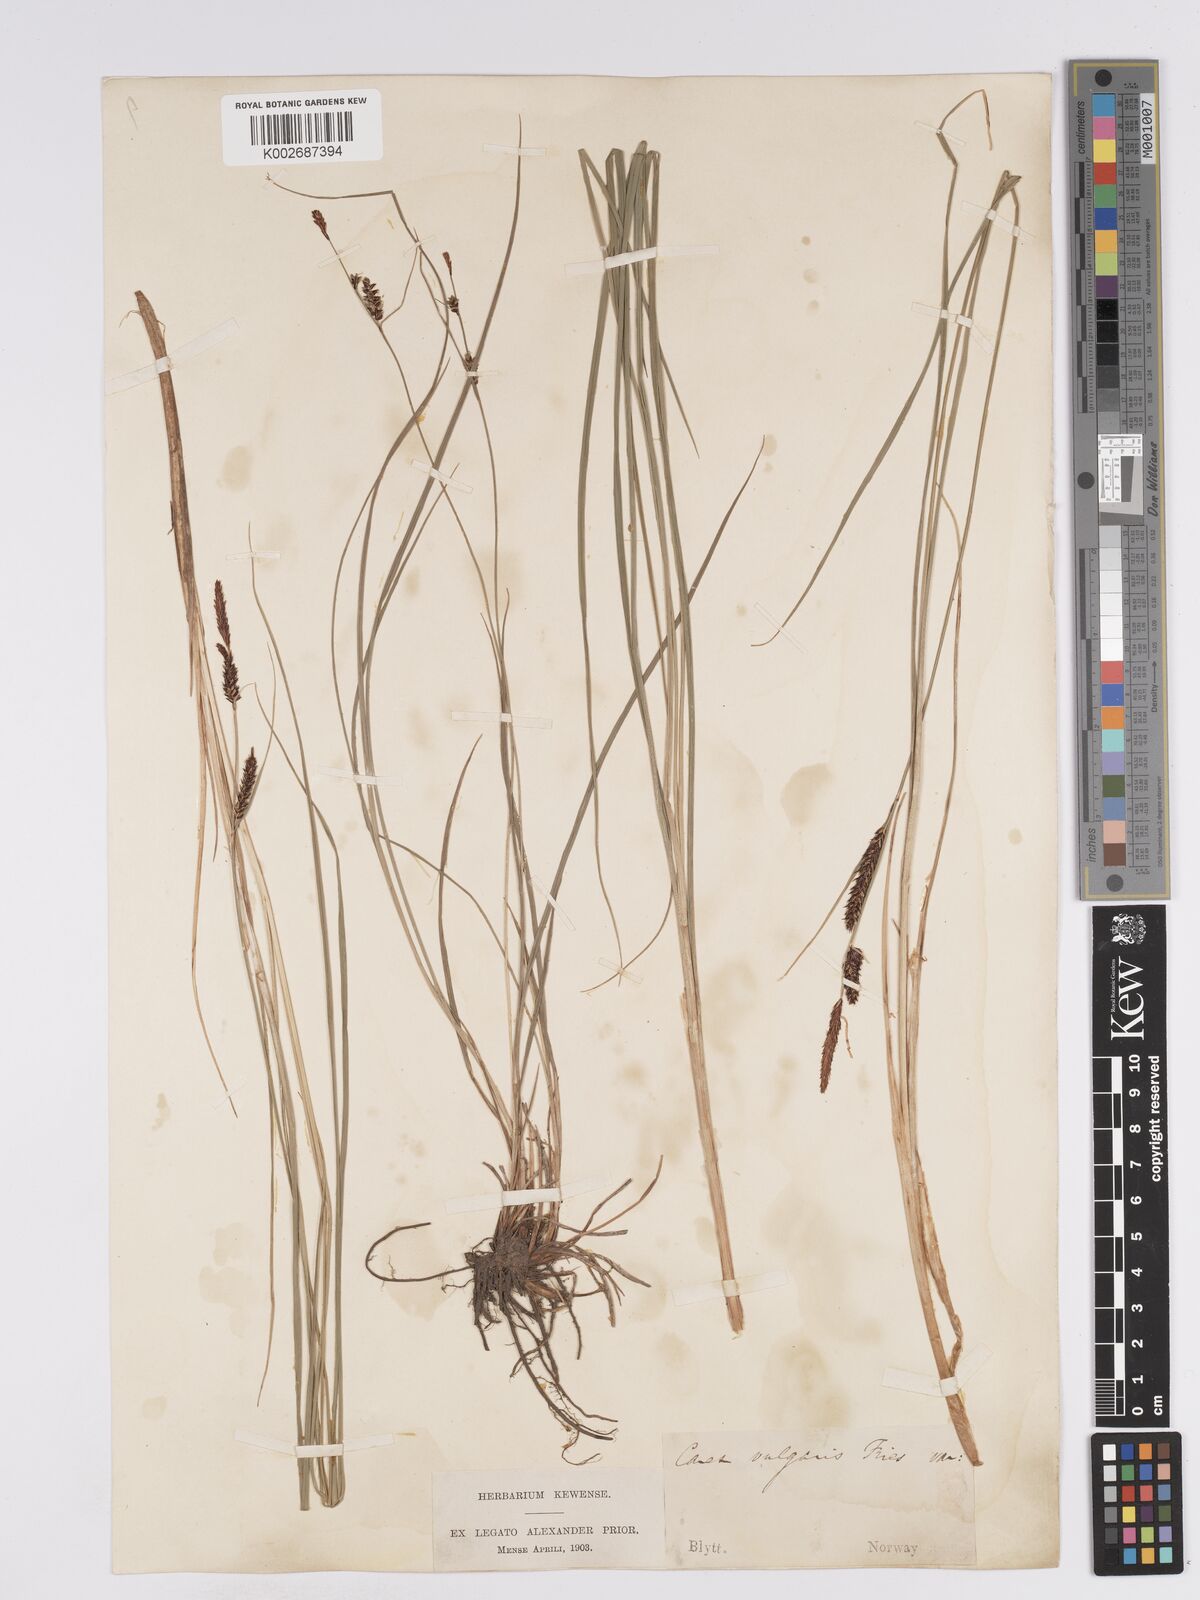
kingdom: Plantae
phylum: Tracheophyta
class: Liliopsida
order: Poales
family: Cyperaceae
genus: Carex
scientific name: Carex nigra
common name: Common sedge
